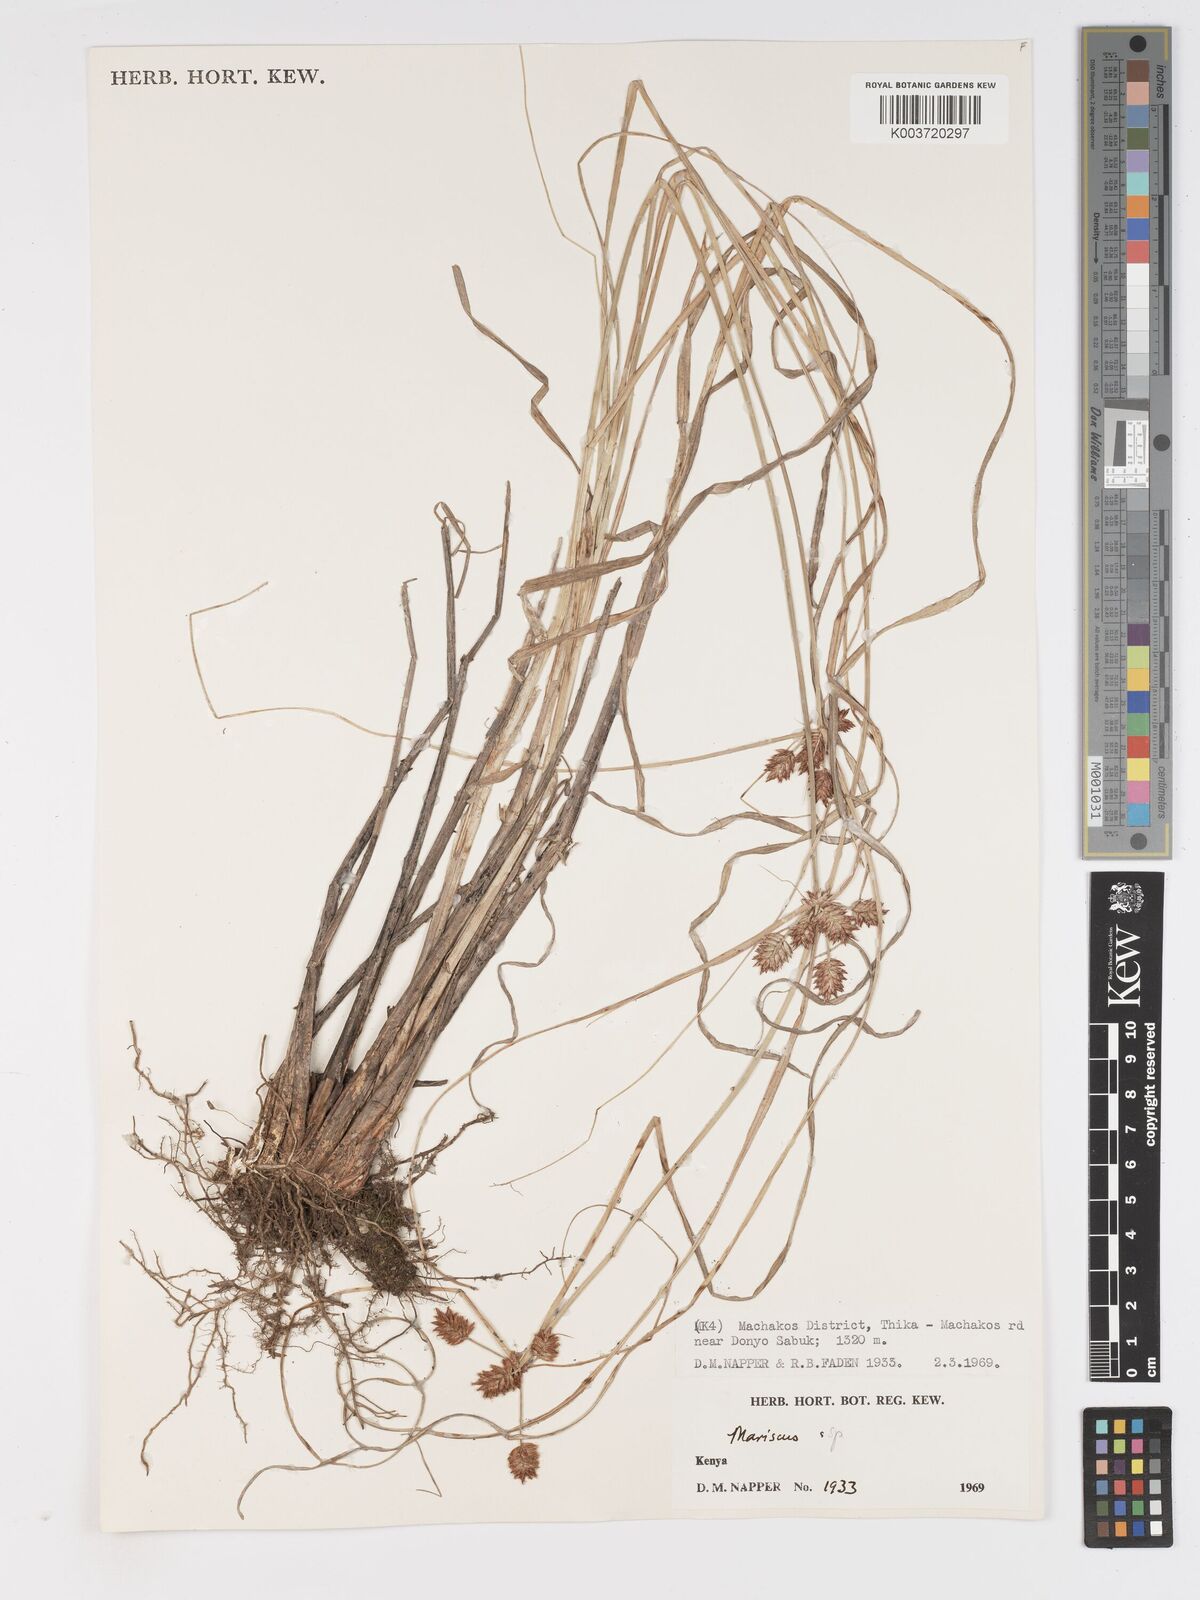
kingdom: Plantae
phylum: Tracheophyta
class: Liliopsida
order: Poales
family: Cyperaceae
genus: Cyperus
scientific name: Cyperus
